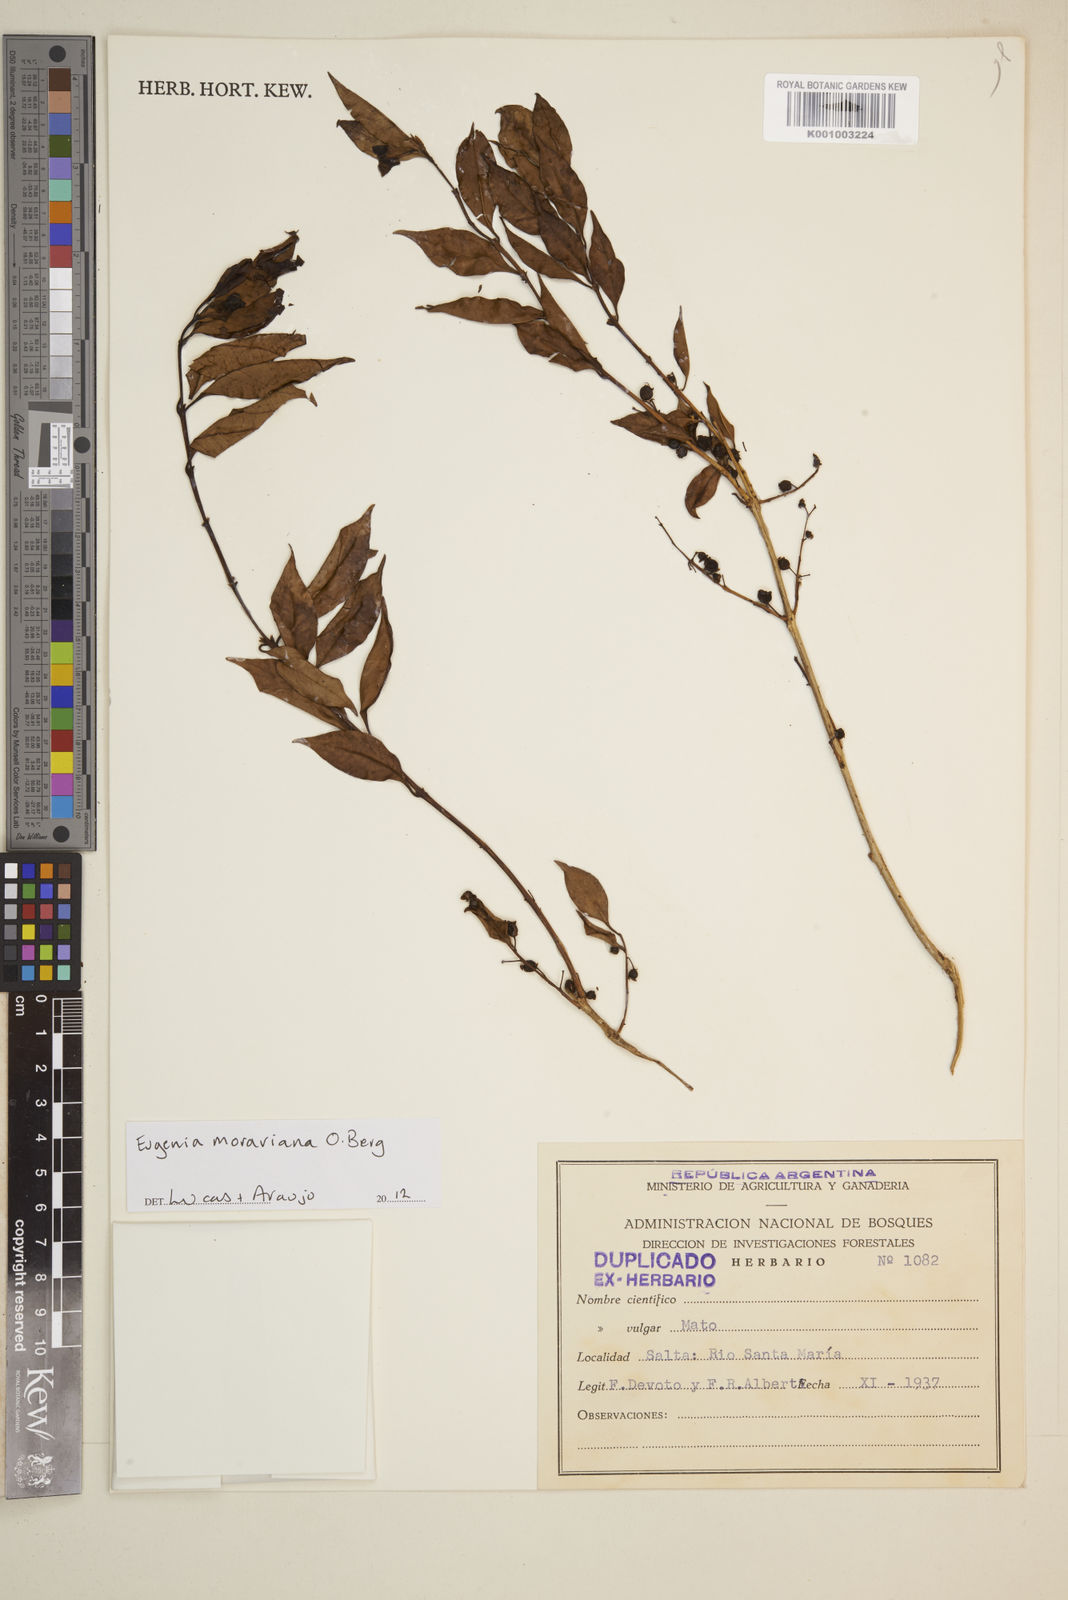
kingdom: Plantae
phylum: Tracheophyta
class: Magnoliopsida
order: Myrtales
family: Myrtaceae
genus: Eugenia
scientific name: Eugenia moraviana
